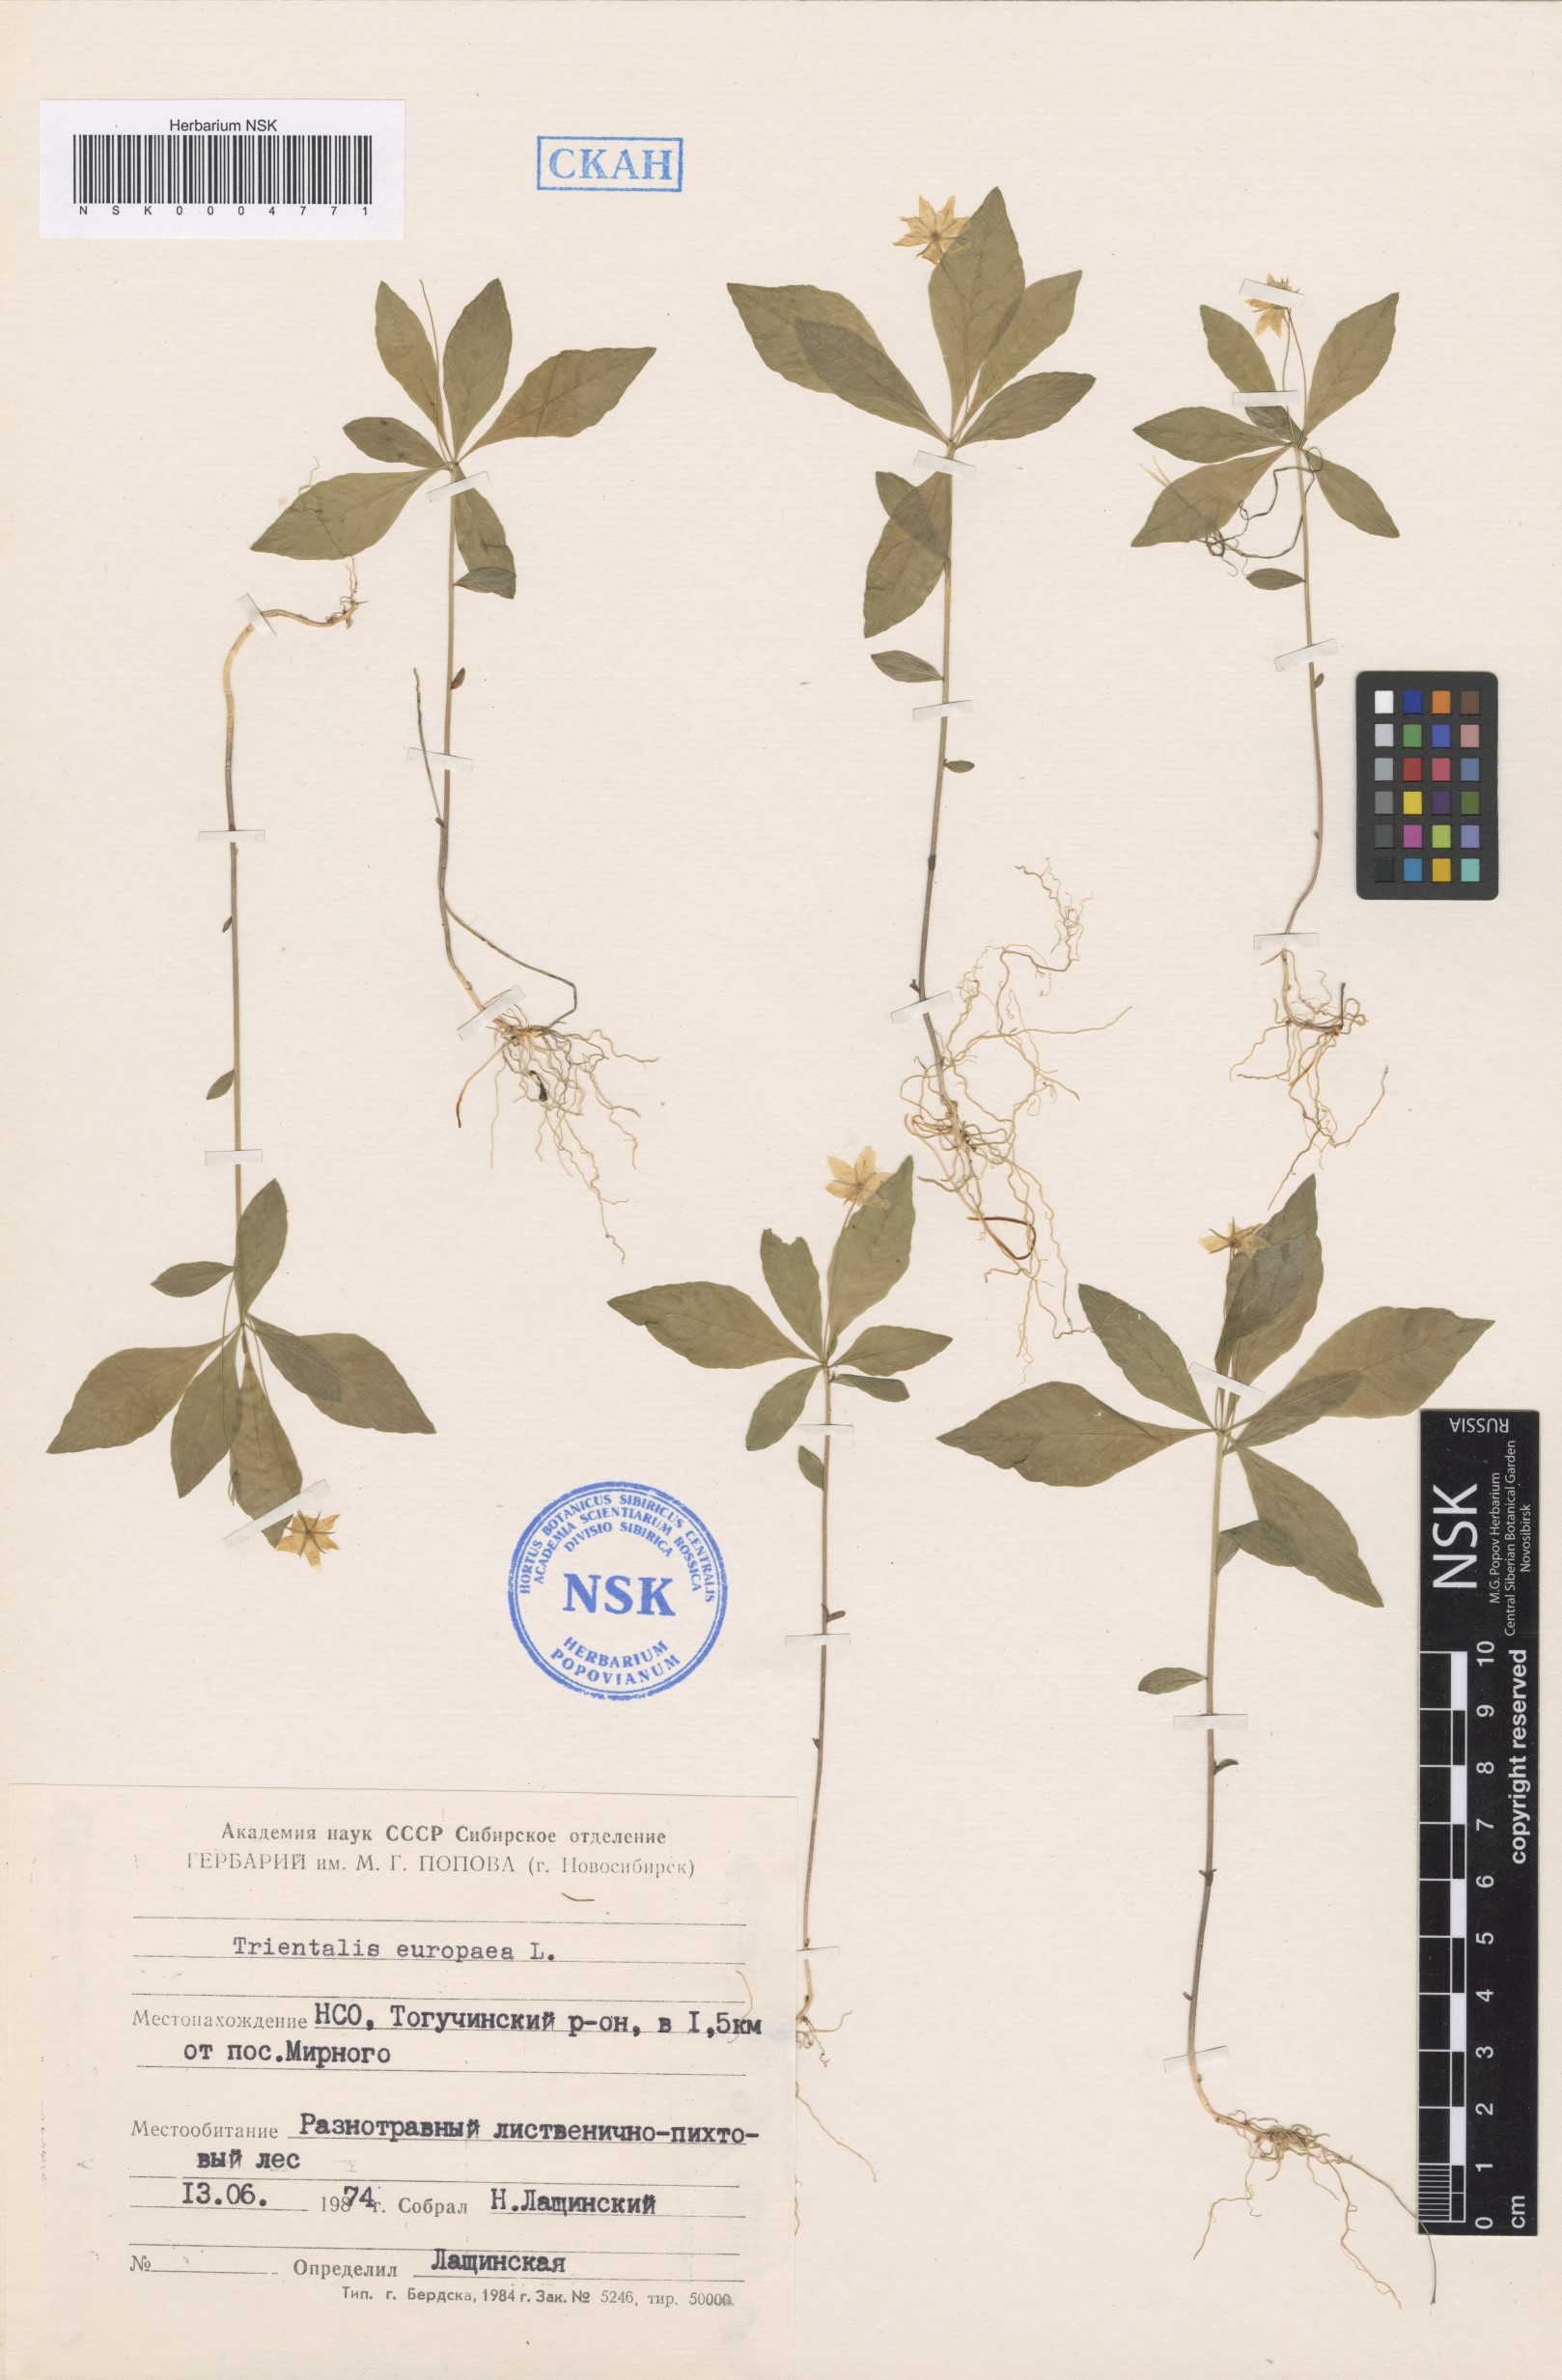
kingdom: Plantae
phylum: Tracheophyta
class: Magnoliopsida
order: Ericales
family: Primulaceae
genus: Lysimachia
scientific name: Lysimachia europaea
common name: Arctic starflower
